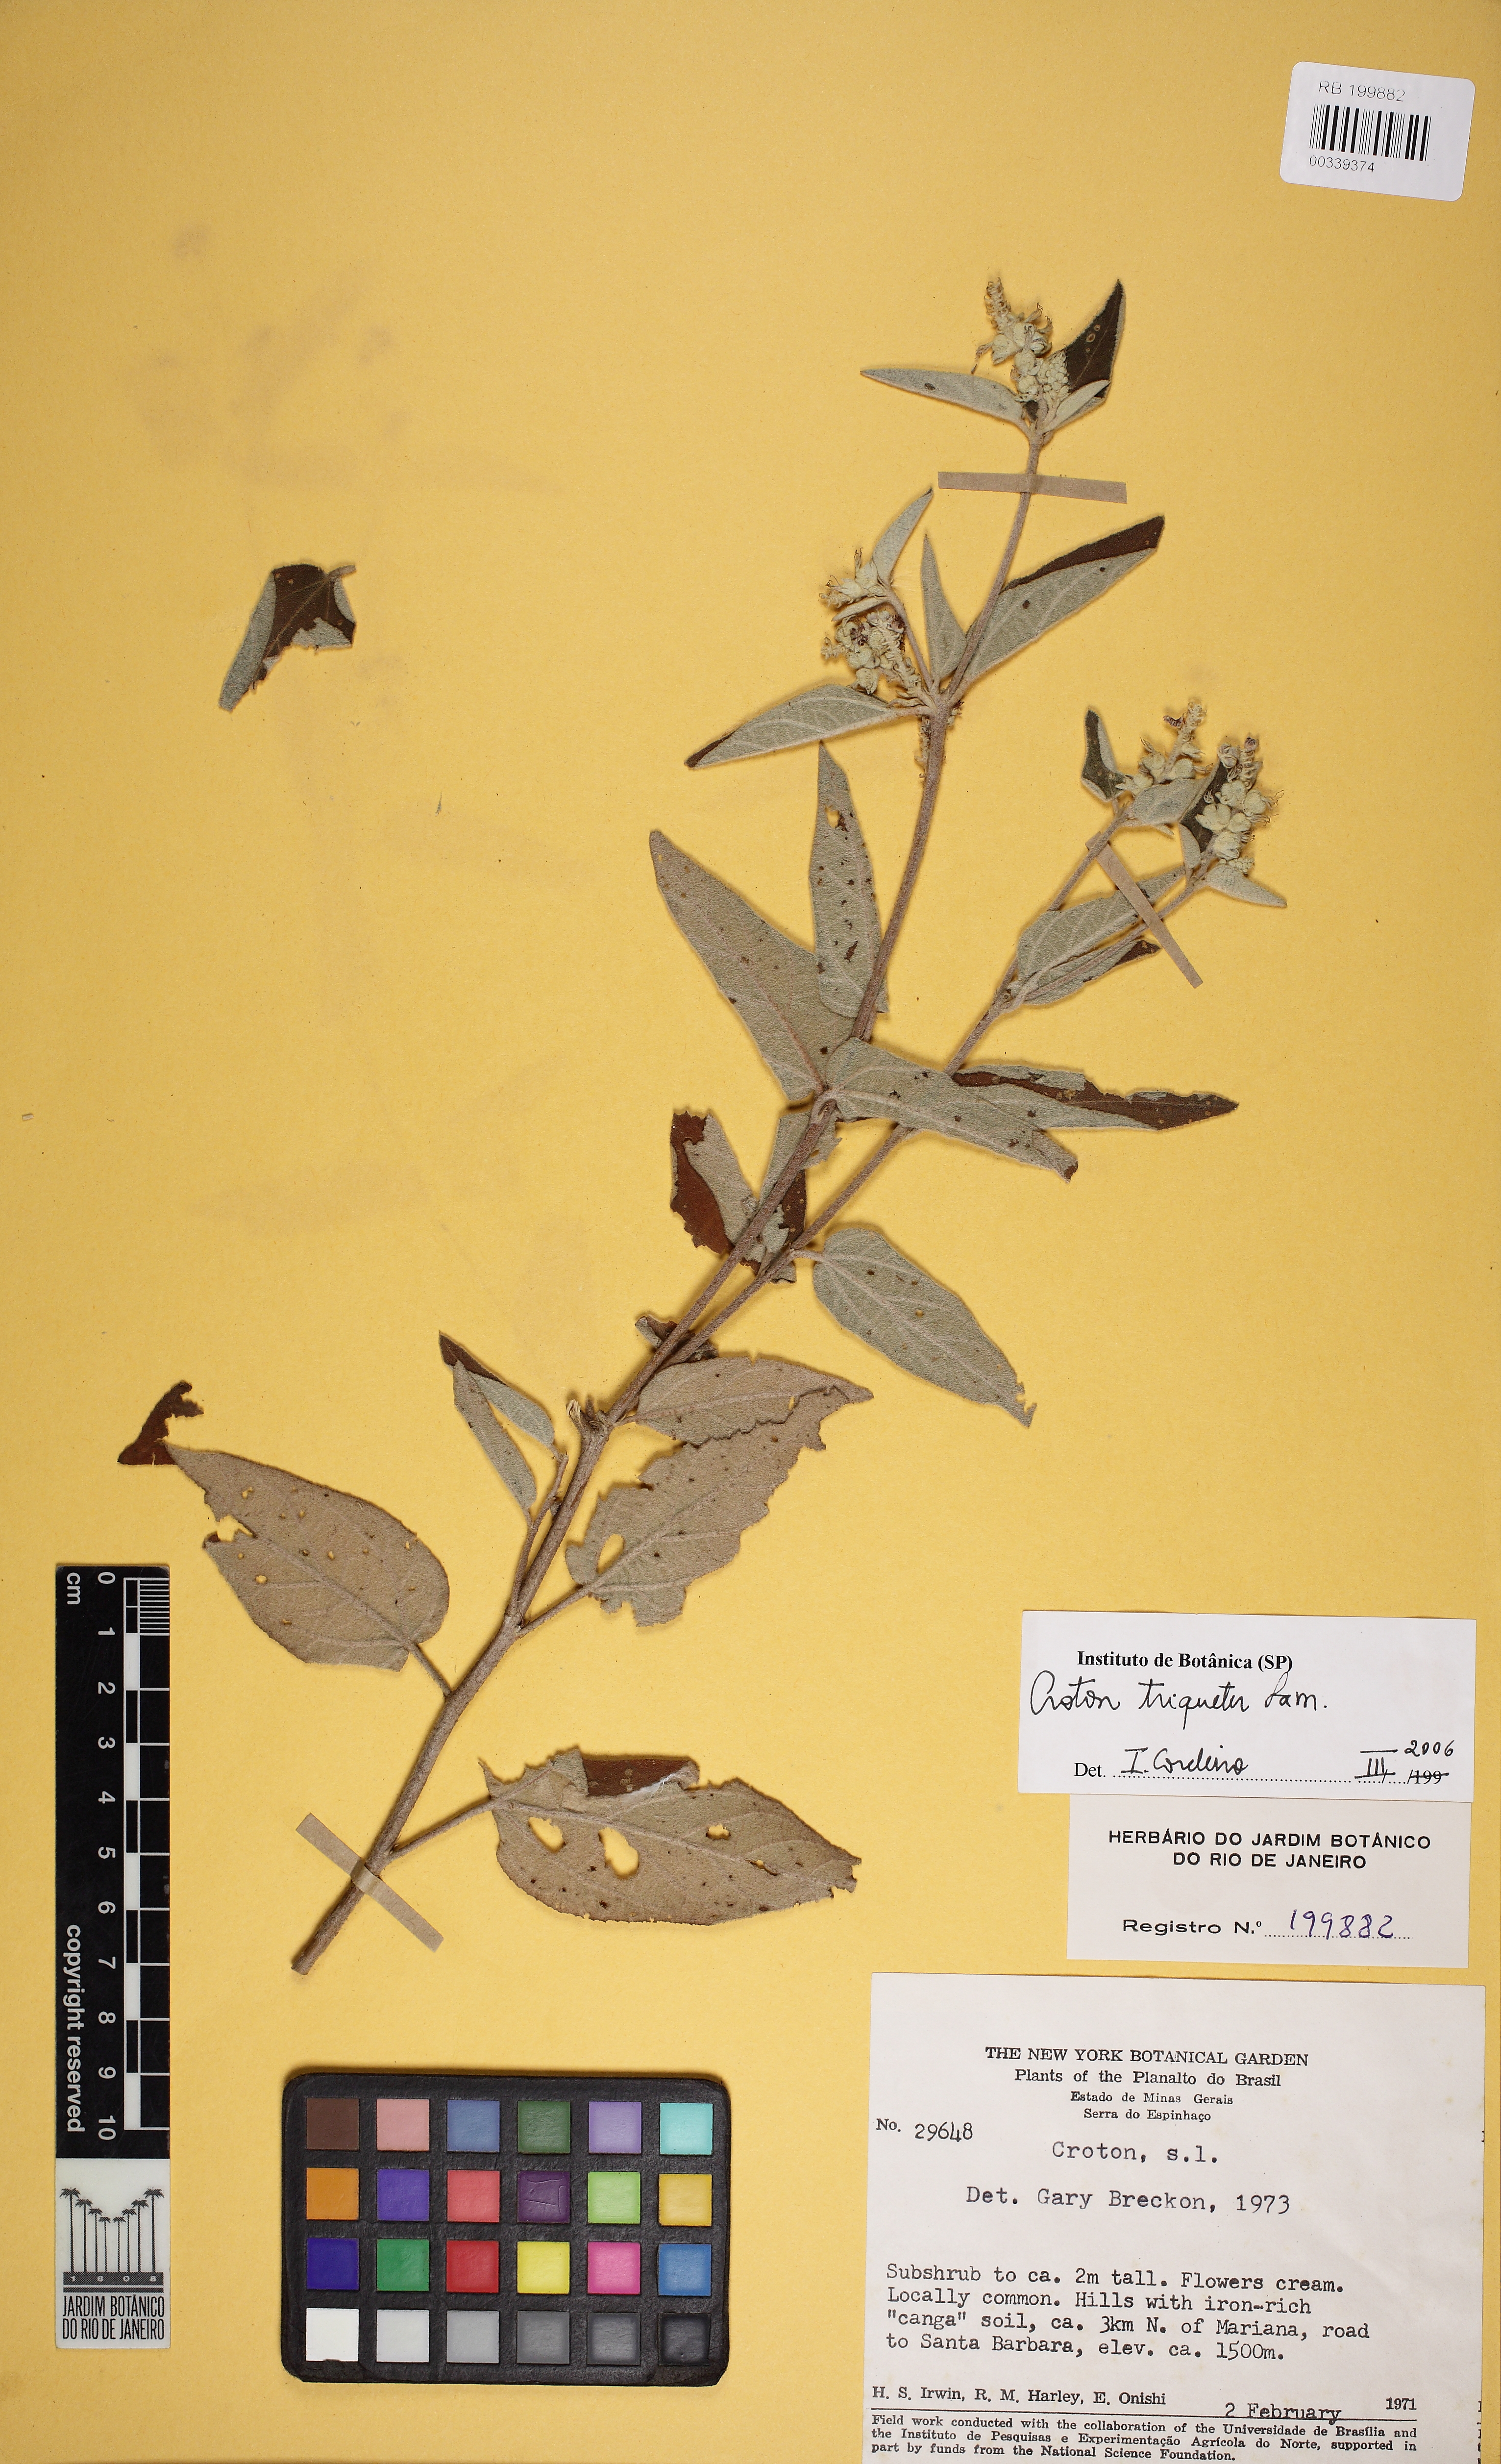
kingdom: Plantae
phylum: Tracheophyta
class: Magnoliopsida
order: Malpighiales
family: Euphorbiaceae
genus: Croton
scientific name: Croton triqueter
